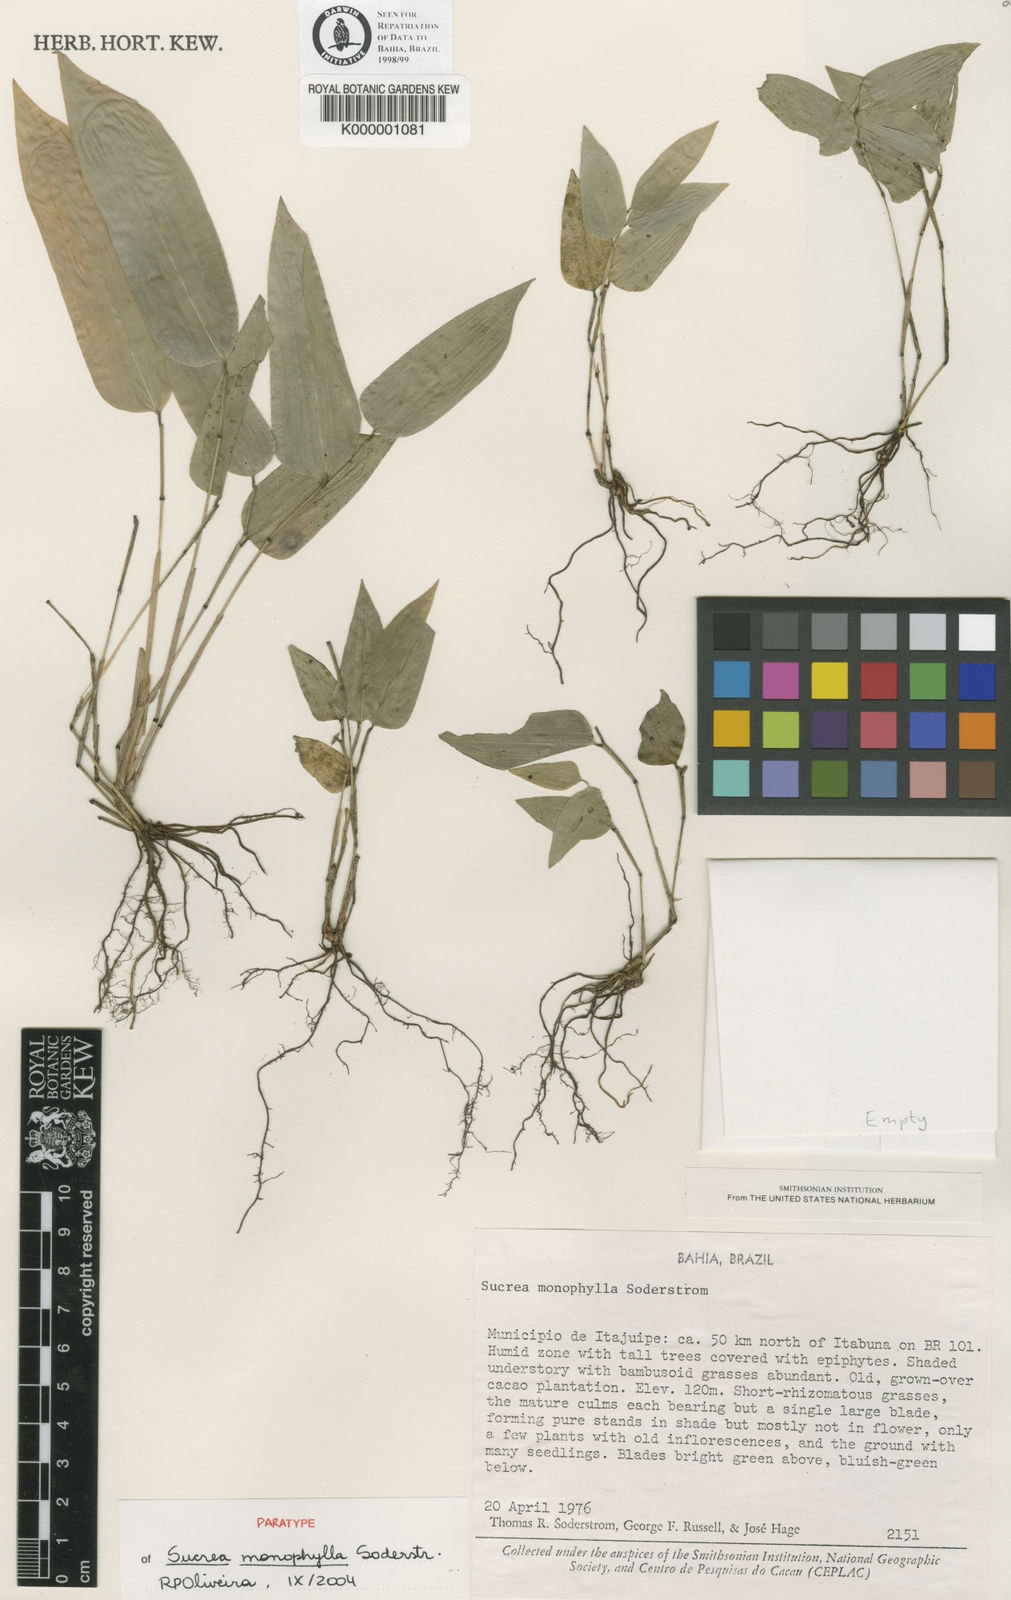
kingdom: Plantae
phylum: Tracheophyta
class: Liliopsida
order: Poales
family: Poaceae
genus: Raddia
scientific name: Raddia monophylla
